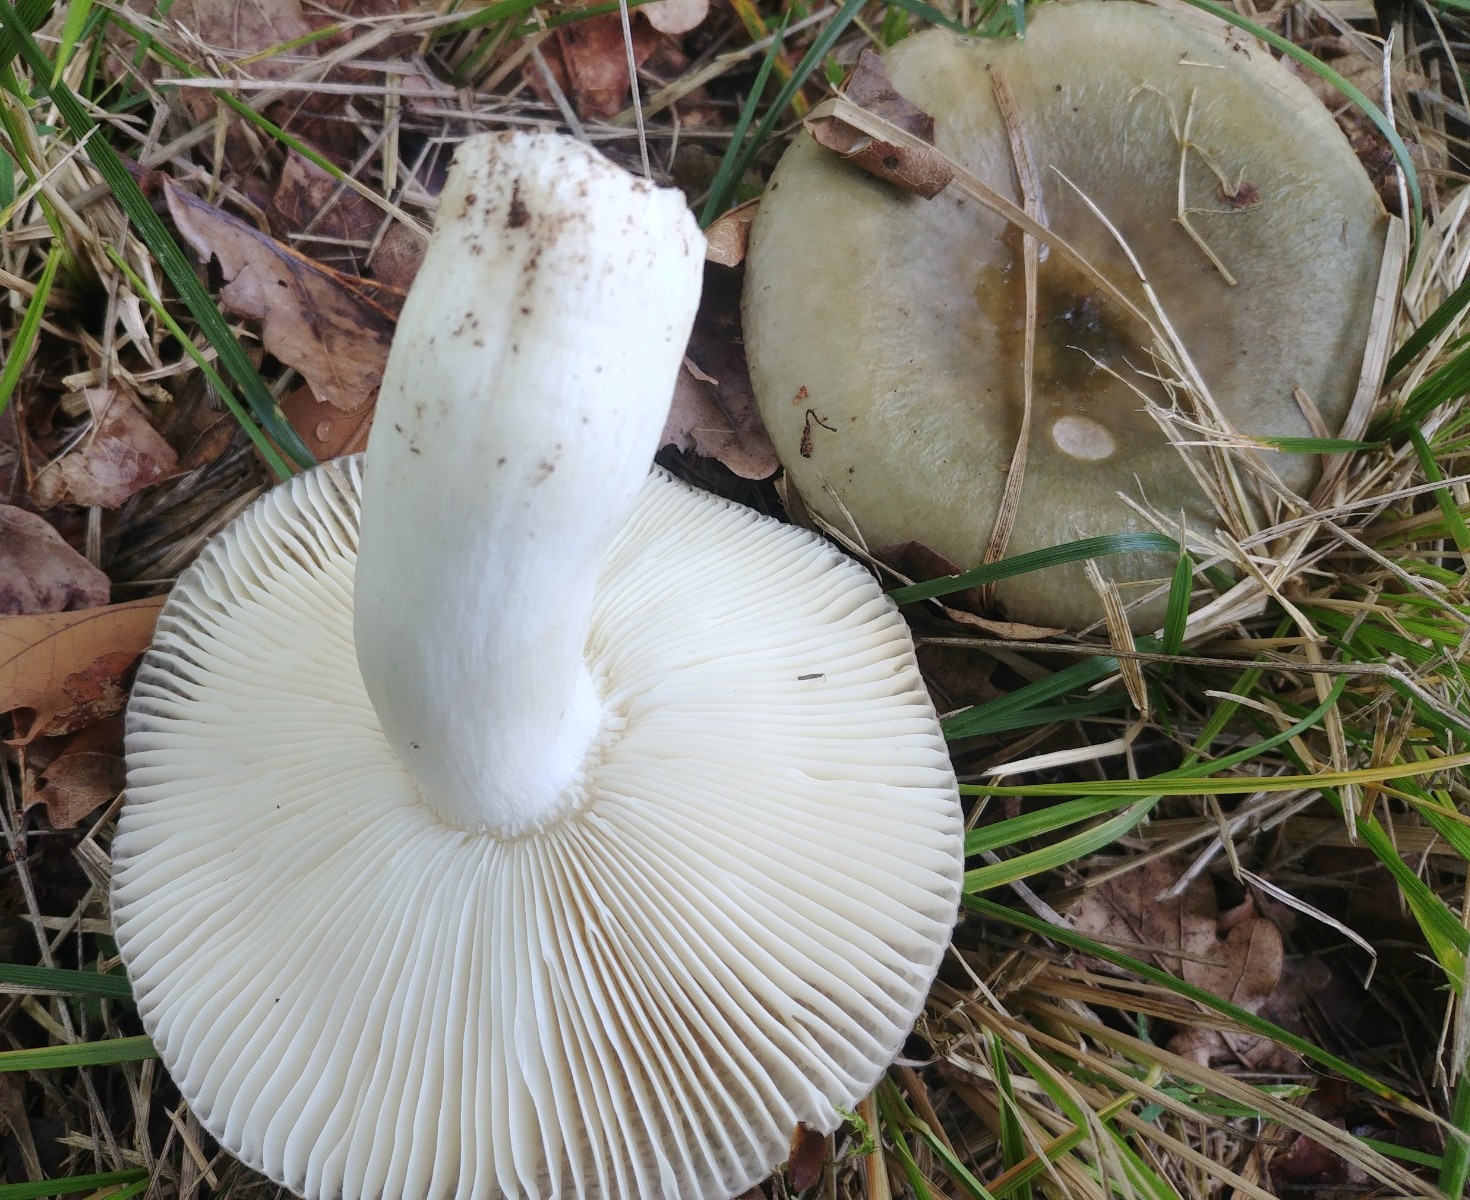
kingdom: Fungi
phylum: Basidiomycota
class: Agaricomycetes
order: Russulales
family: Russulaceae
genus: Russula
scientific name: Russula
